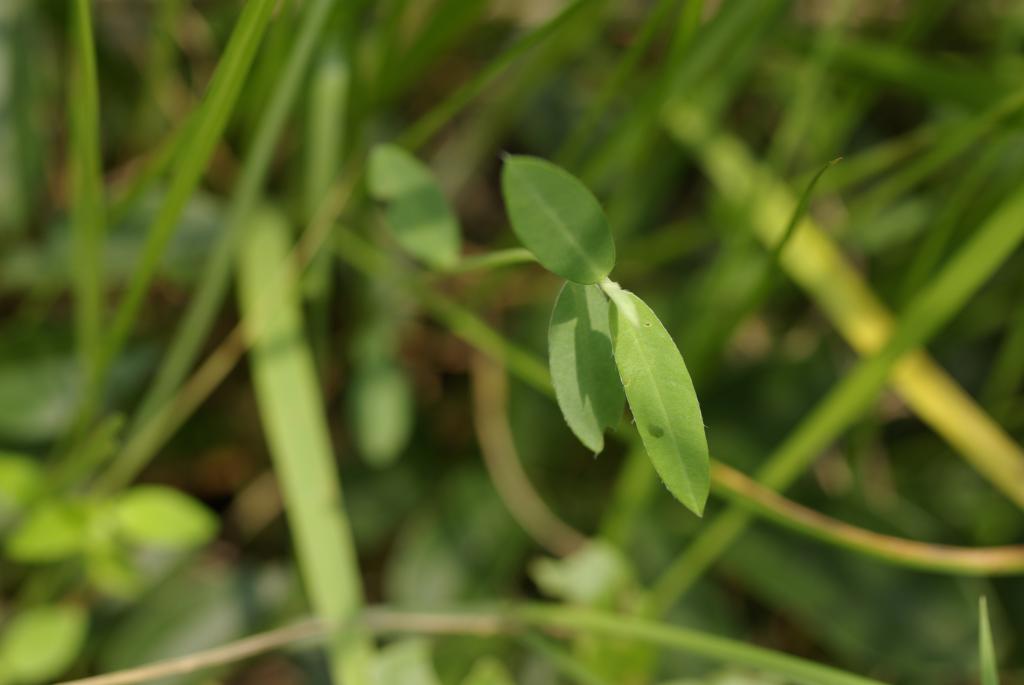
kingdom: Plantae
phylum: Tracheophyta
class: Magnoliopsida
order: Fabales
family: Fabaceae
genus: Crotalaria
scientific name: Crotalaria sessiliflora
